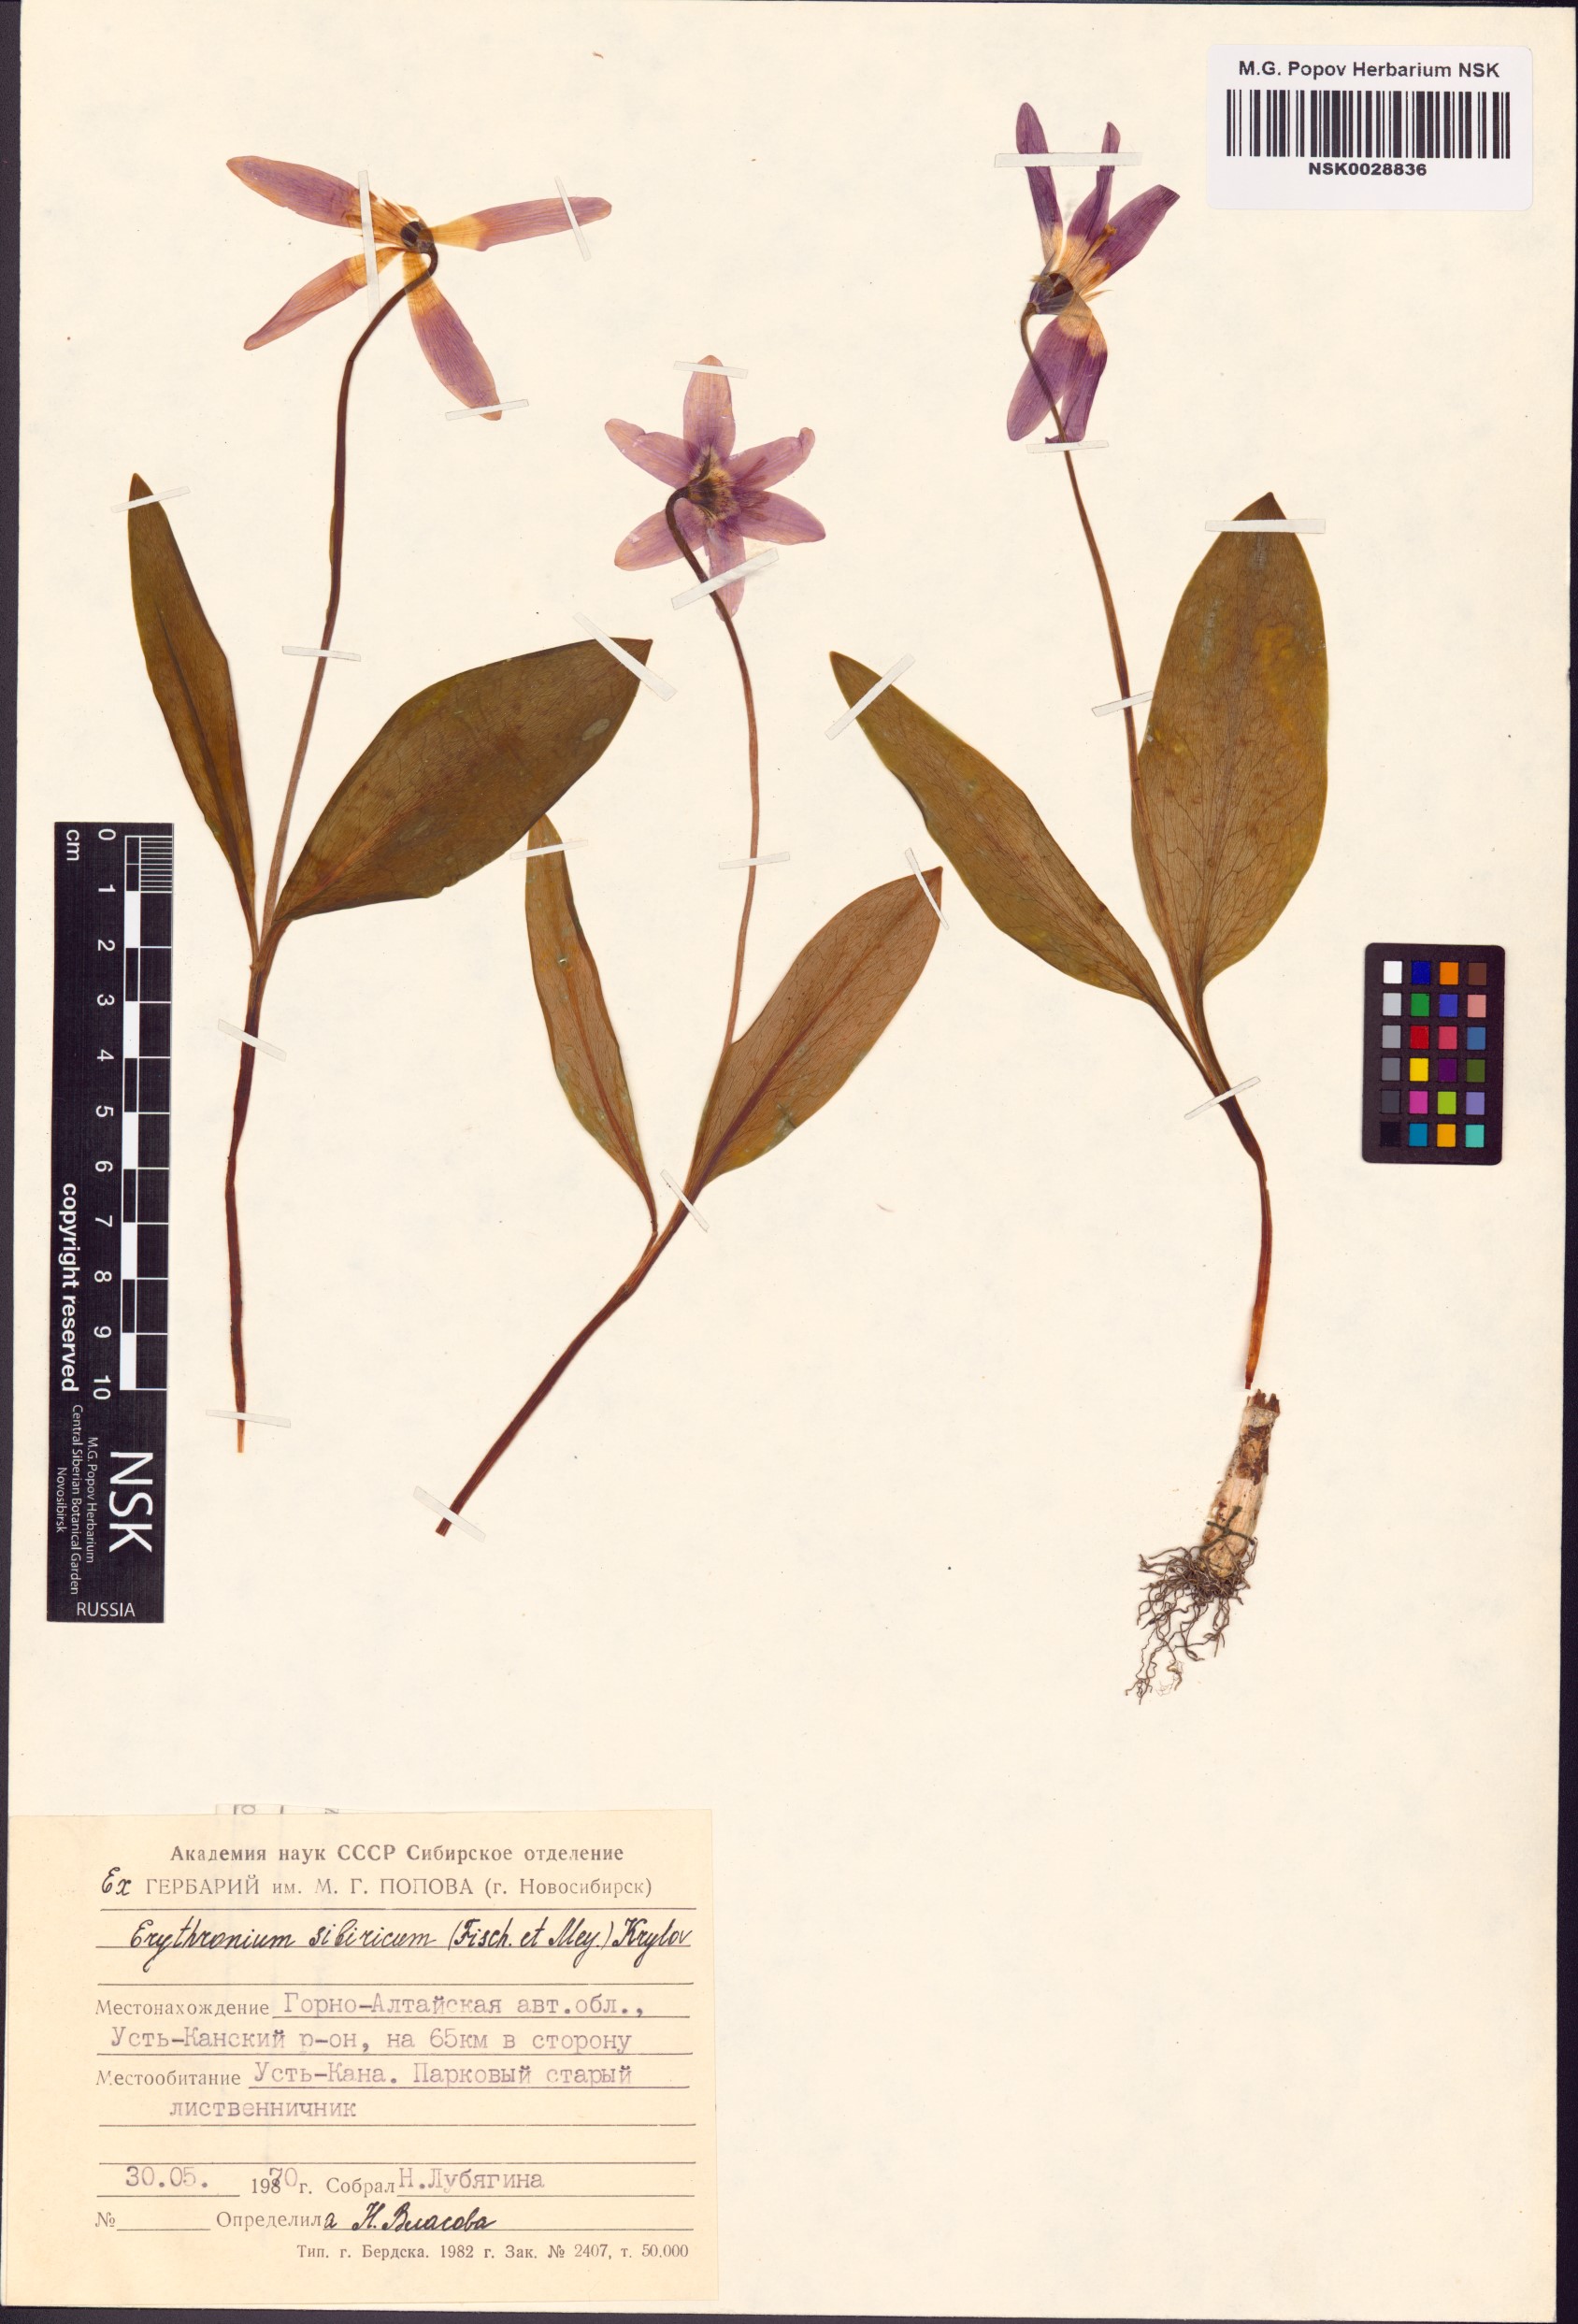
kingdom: Plantae
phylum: Tracheophyta
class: Liliopsida
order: Liliales
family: Liliaceae
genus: Erythronium
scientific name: Erythronium sibiricum
